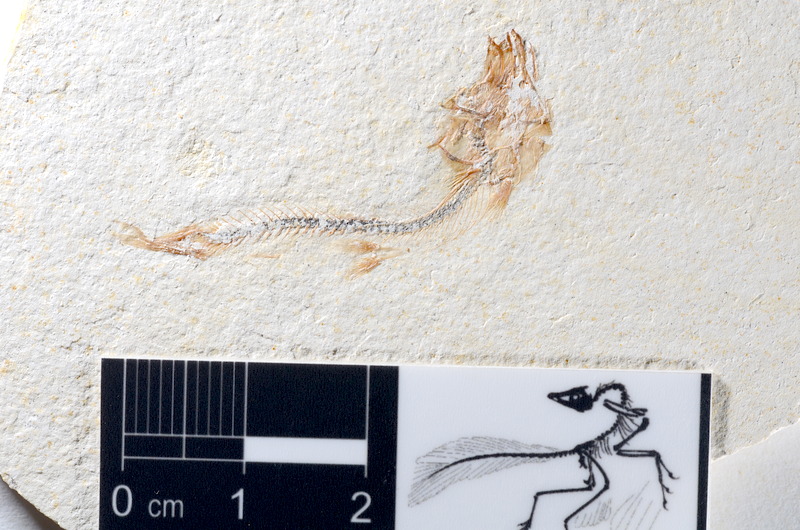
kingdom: Animalia
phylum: Chordata
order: Salmoniformes
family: Orthogonikleithridae
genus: Orthogonikleithrus
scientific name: Orthogonikleithrus hoelli
